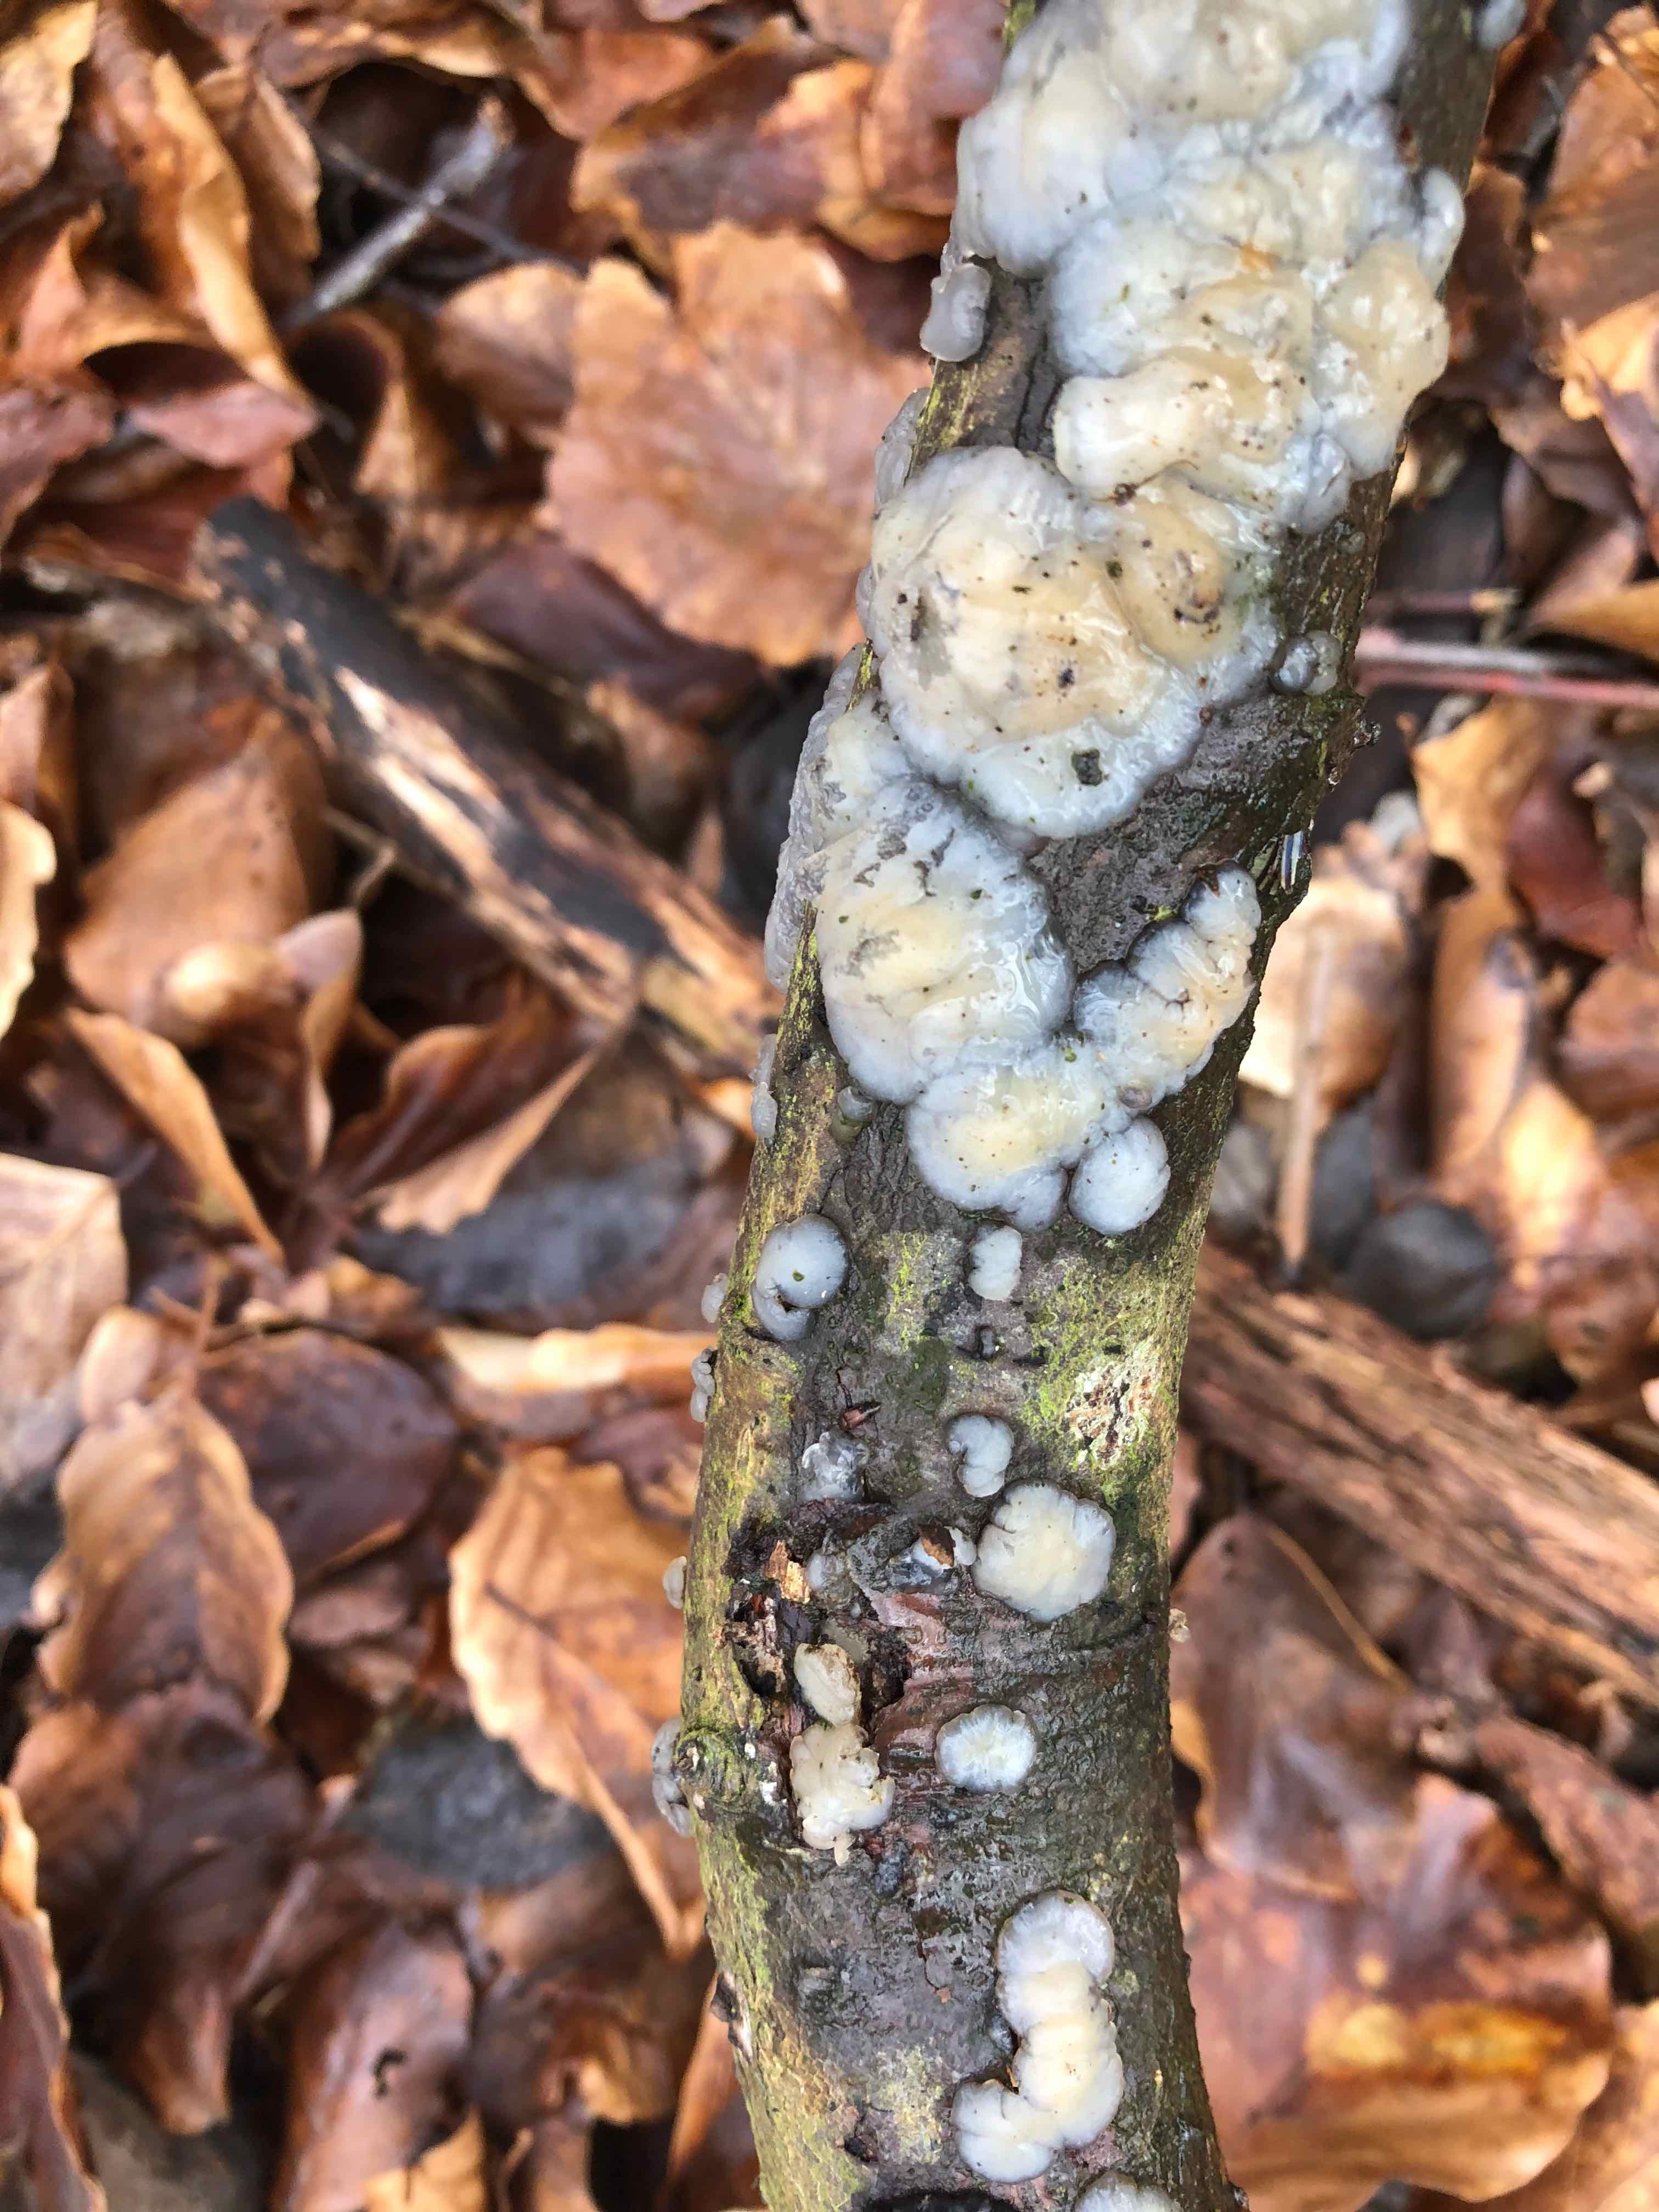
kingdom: Fungi
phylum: Basidiomycota
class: Agaricomycetes
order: Auriculariales
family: Auriculariaceae
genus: Exidia
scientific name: Exidia thuretiana
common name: hvidlig bævretop
